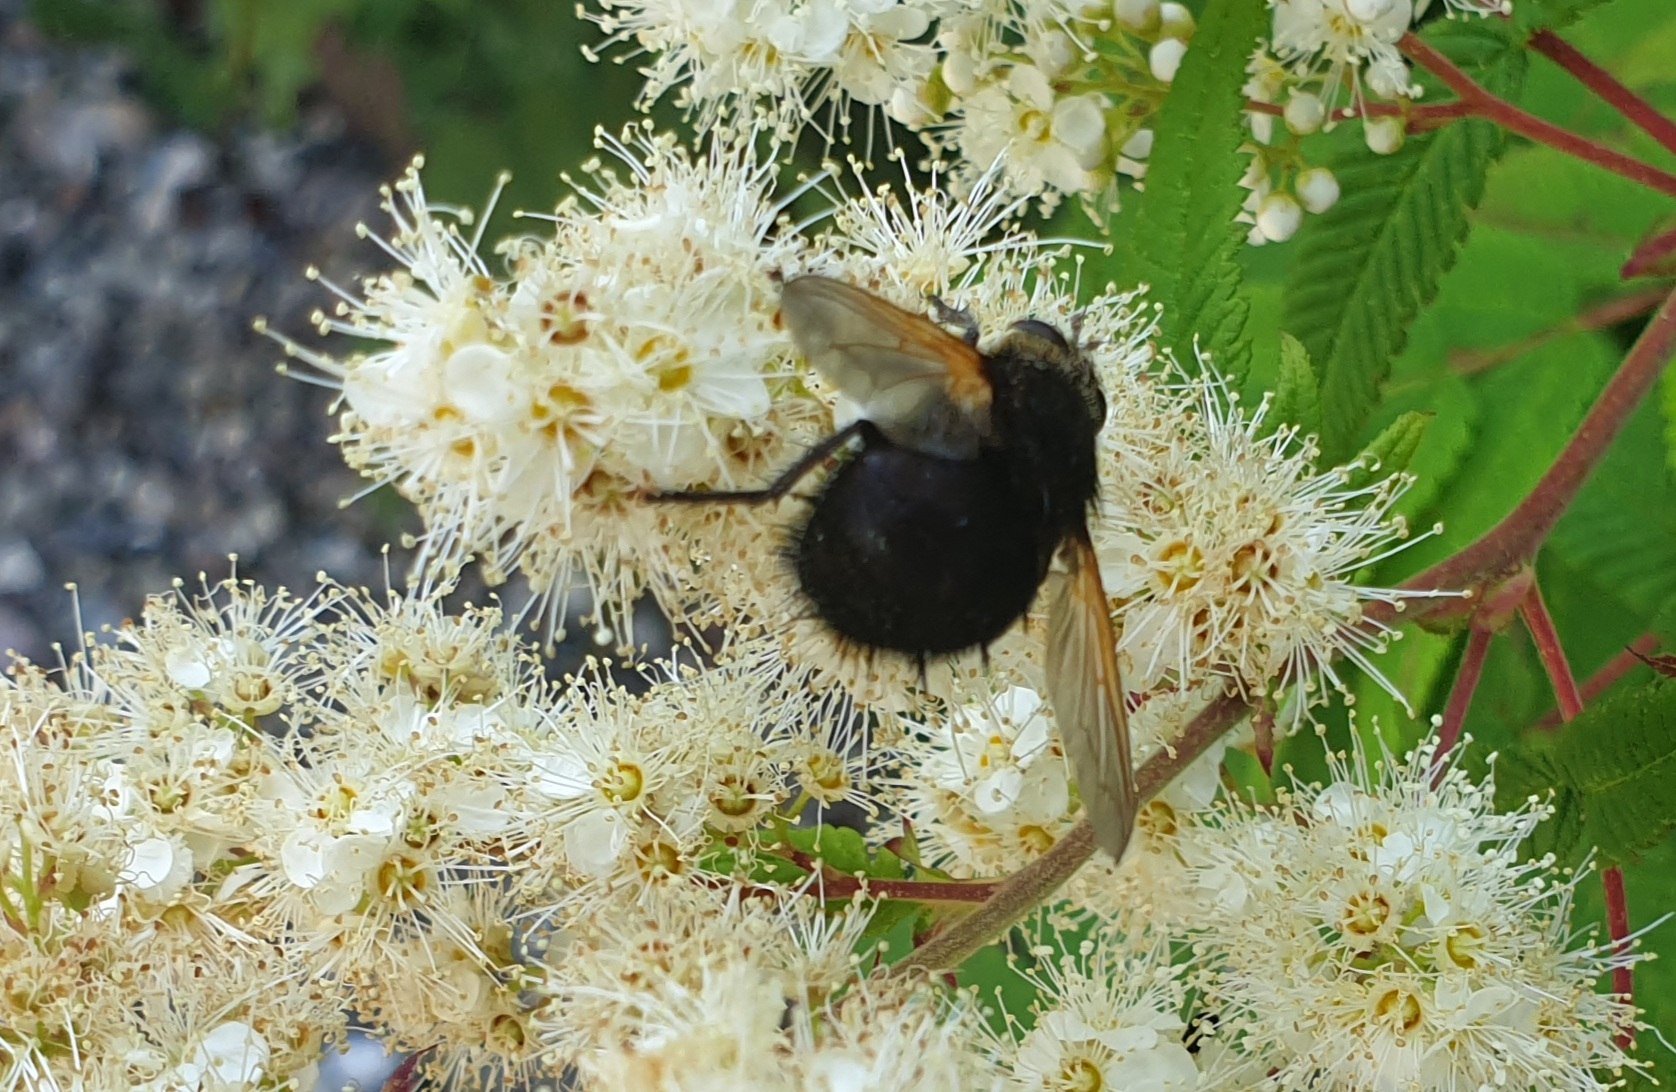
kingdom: Animalia
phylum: Arthropoda
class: Insecta
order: Diptera
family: Tachinidae
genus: Tachina
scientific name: Tachina grossa
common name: Kæmpefluen Harald
